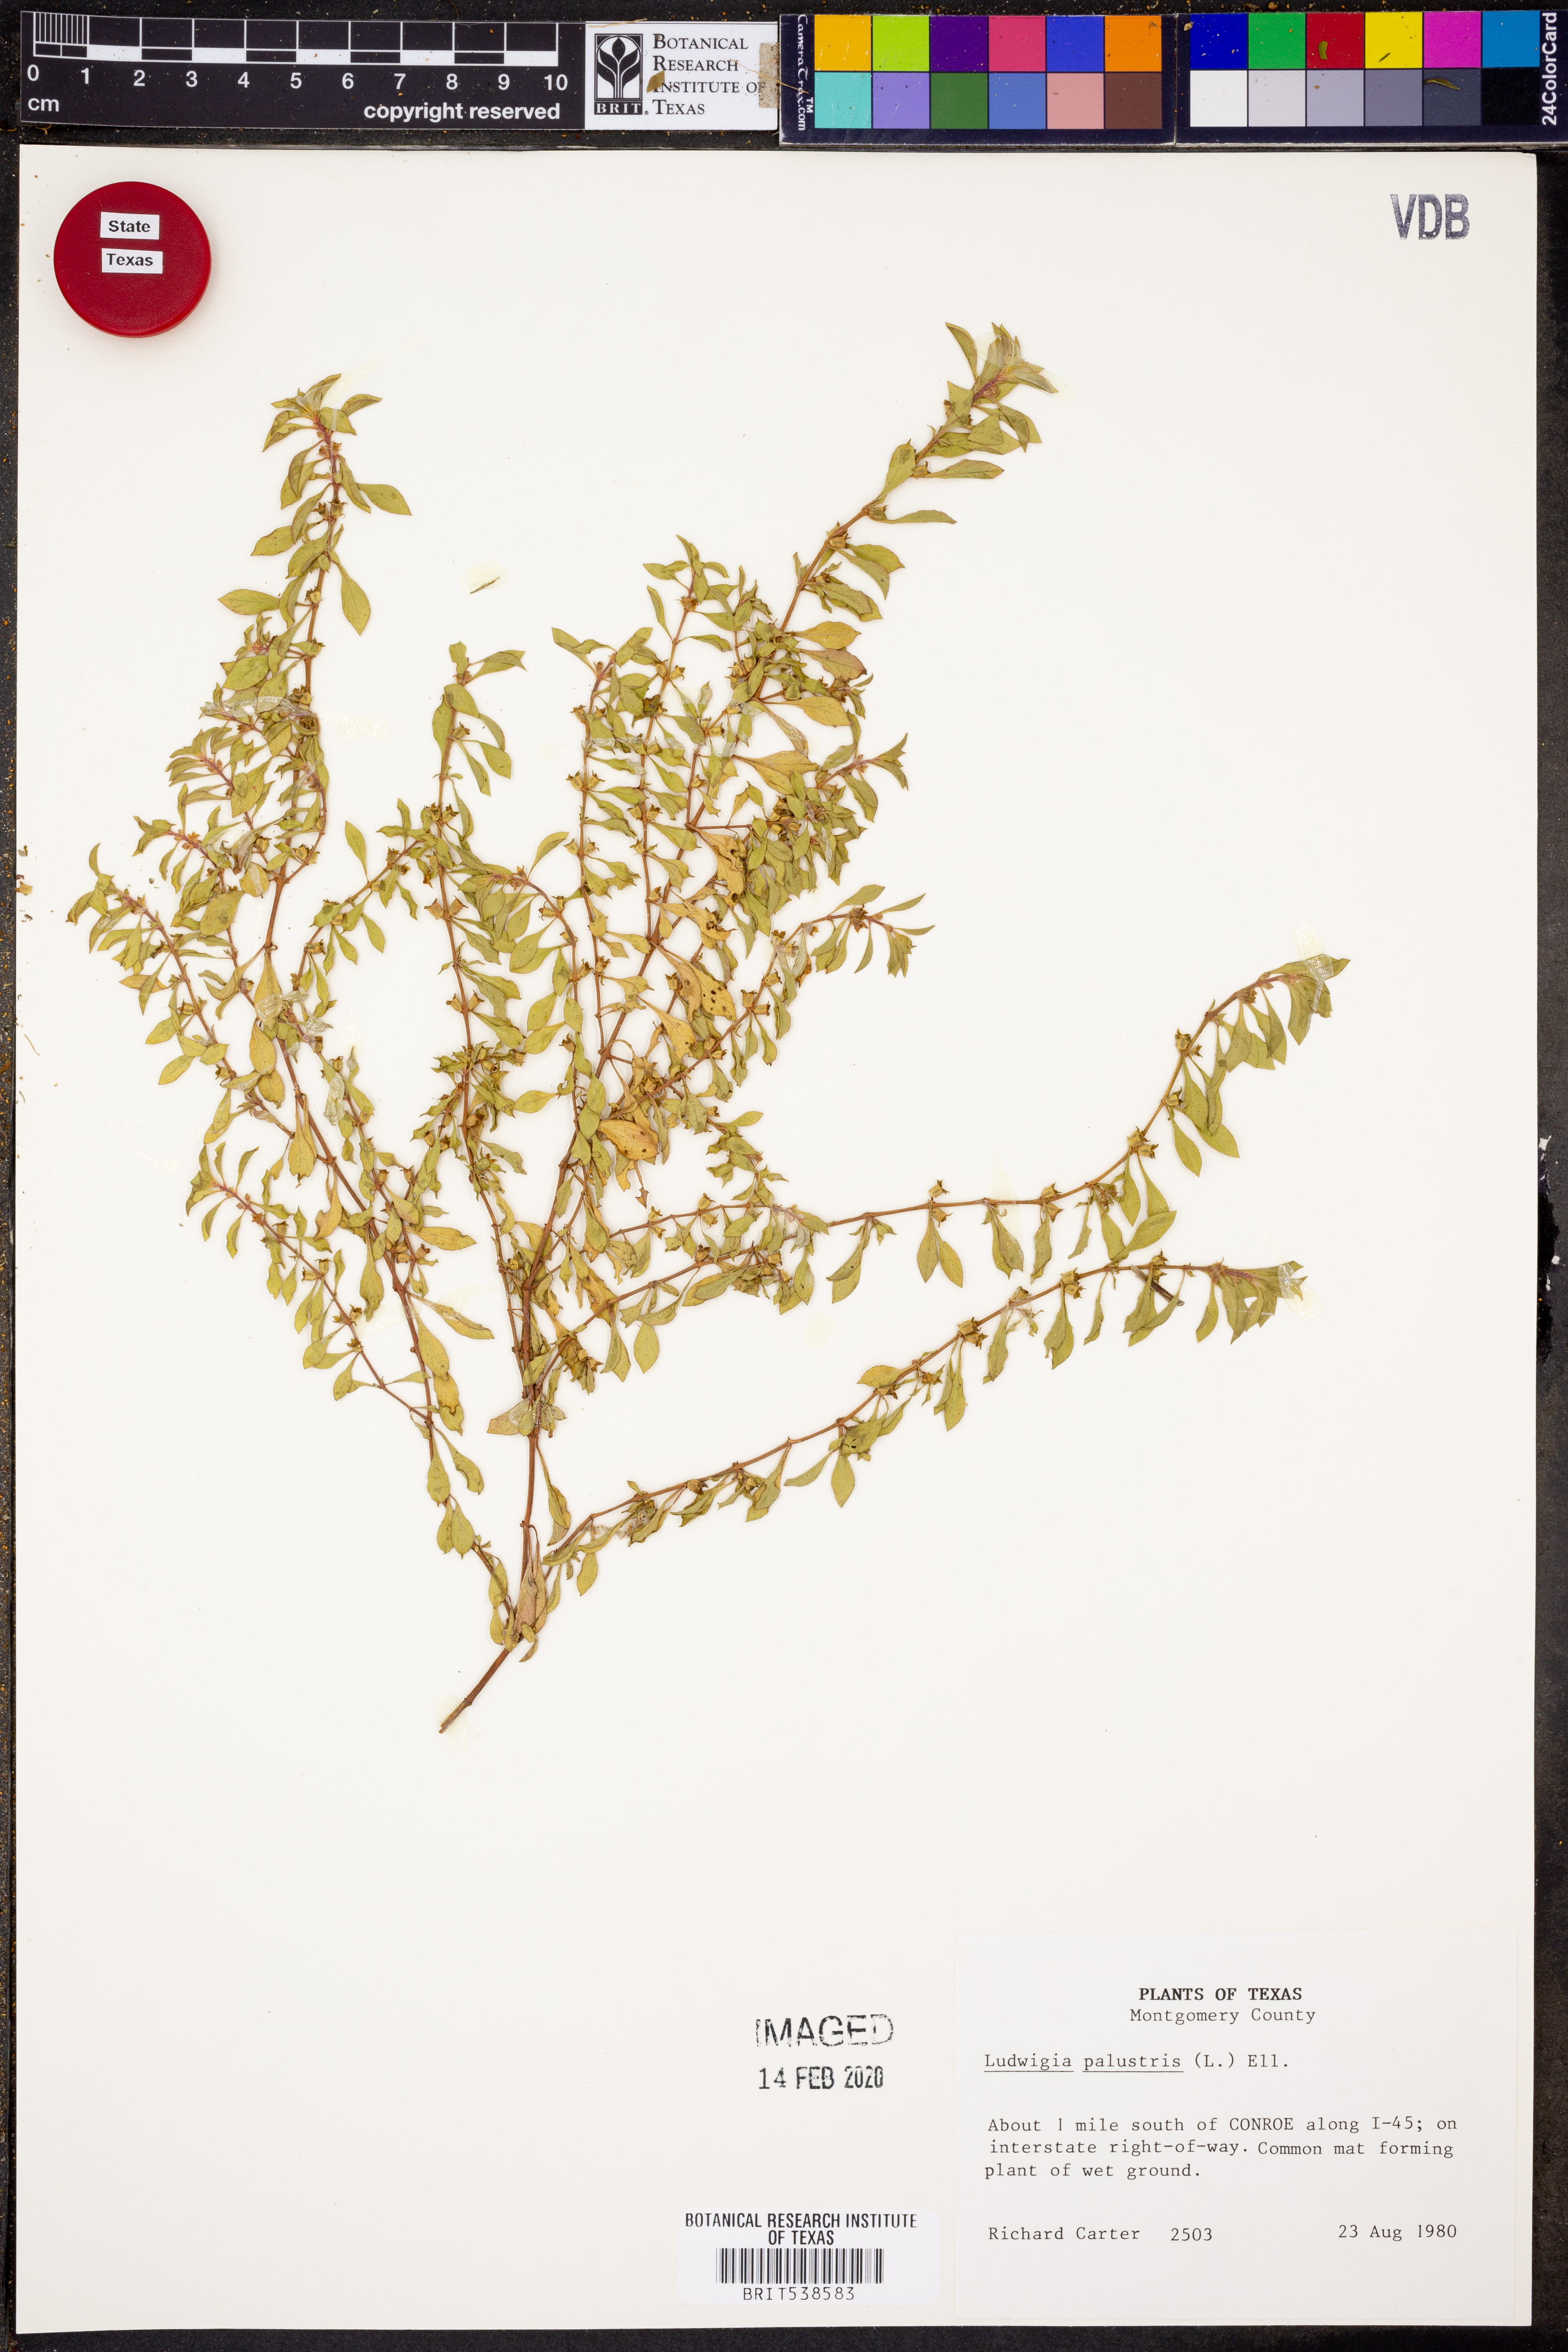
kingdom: Plantae
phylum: Tracheophyta
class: Magnoliopsida
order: Myrtales
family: Onagraceae
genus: Ludwigia
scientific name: Ludwigia palustris
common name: Hampshire-purslane
